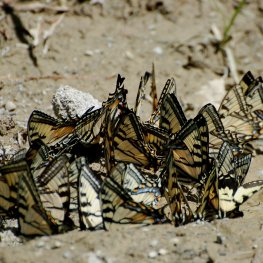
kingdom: Animalia
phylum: Arthropoda
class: Insecta
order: Lepidoptera
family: Papilionidae
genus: Pterourus
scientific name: Pterourus canadensis
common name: Canadian Tiger Swallowtail
